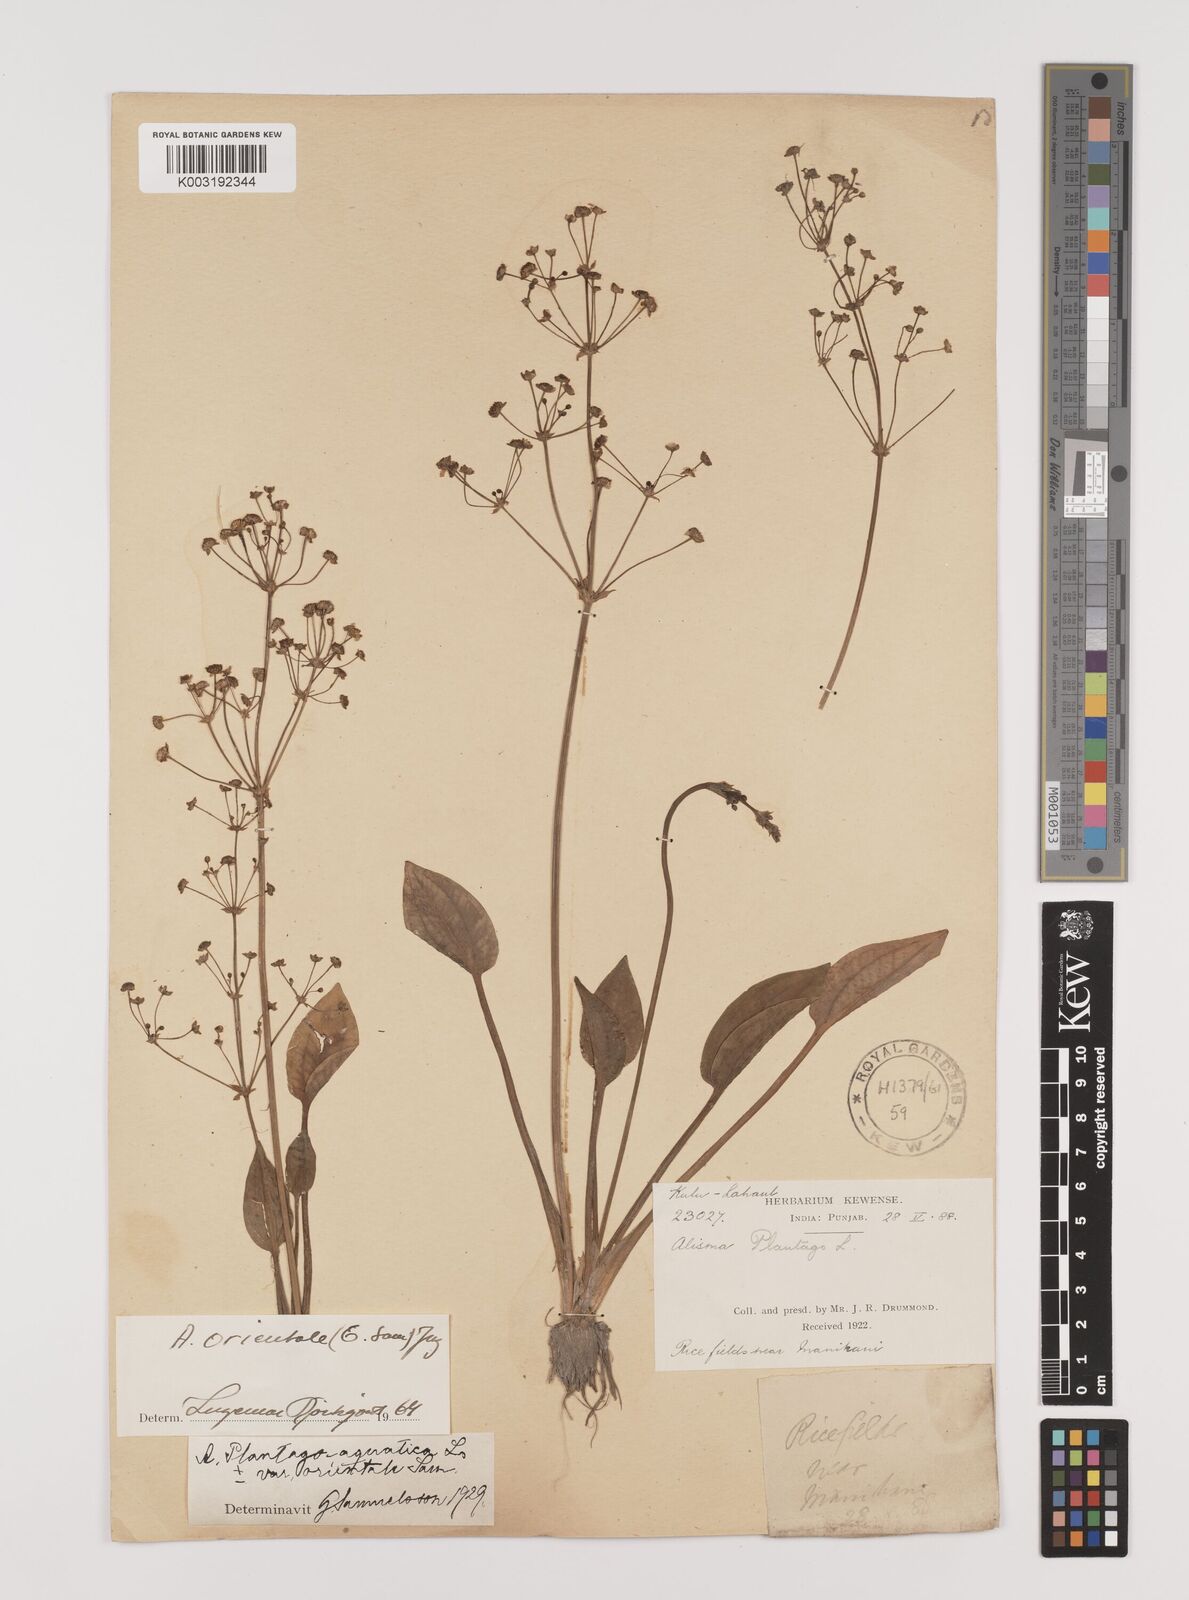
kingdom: Plantae
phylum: Tracheophyta
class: Liliopsida
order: Alismatales
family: Alismataceae
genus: Alisma
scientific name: Alisma plantago-aquatica
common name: Water-plantain
